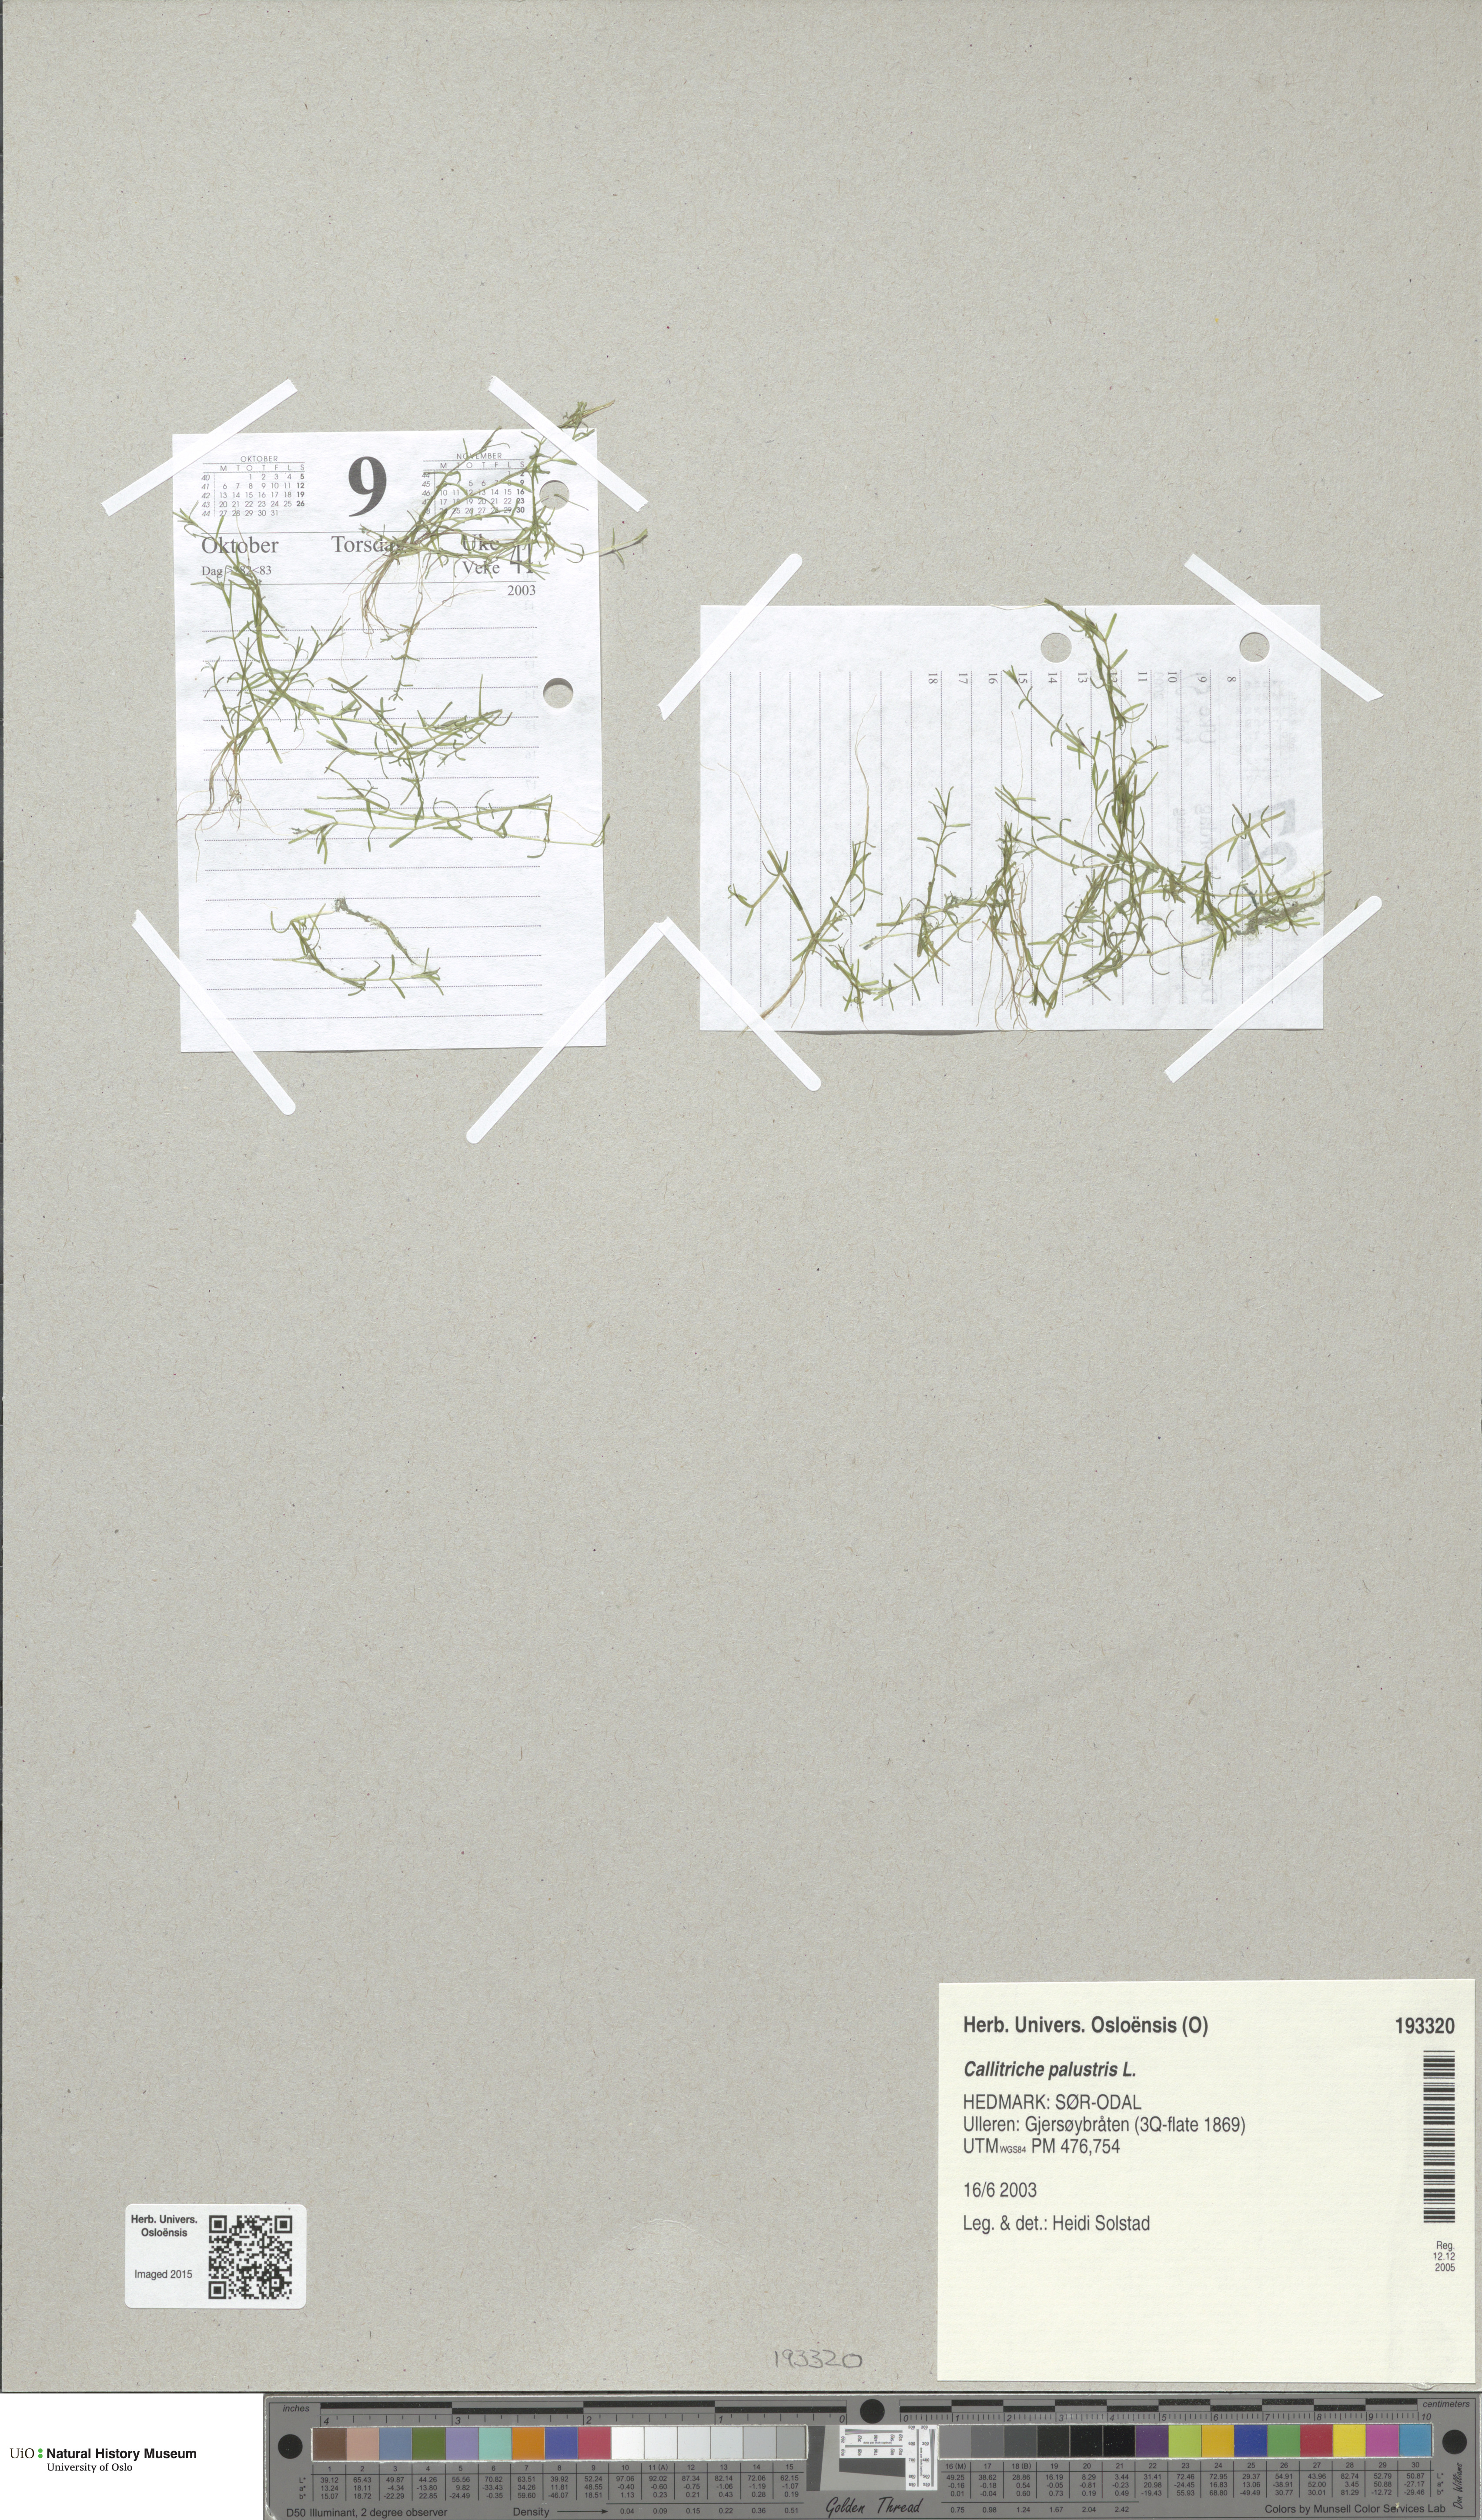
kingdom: Plantae
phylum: Tracheophyta
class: Magnoliopsida
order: Lamiales
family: Plantaginaceae
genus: Callitriche
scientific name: Callitriche palustris
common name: Spring water-starwort
